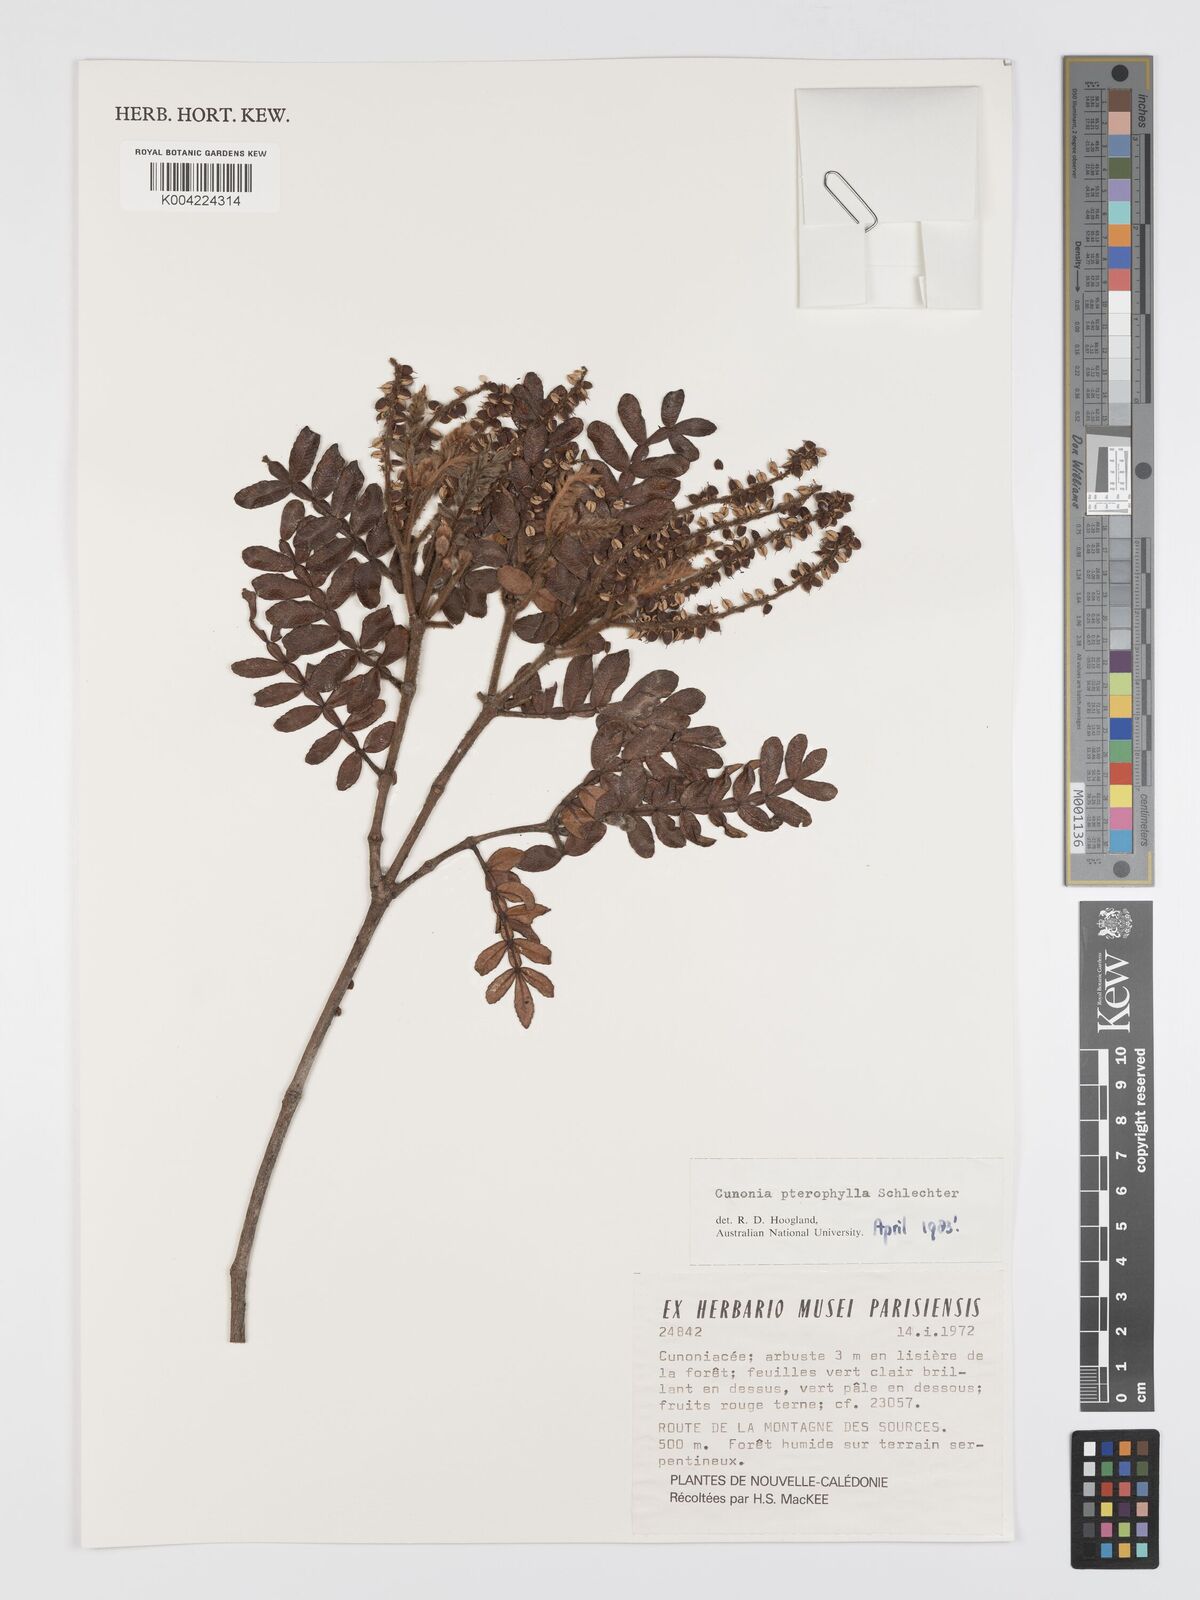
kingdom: Plantae
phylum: Tracheophyta
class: Magnoliopsida
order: Oxalidales
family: Cunoniaceae
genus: Cunonia
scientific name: Cunonia pterophylla
